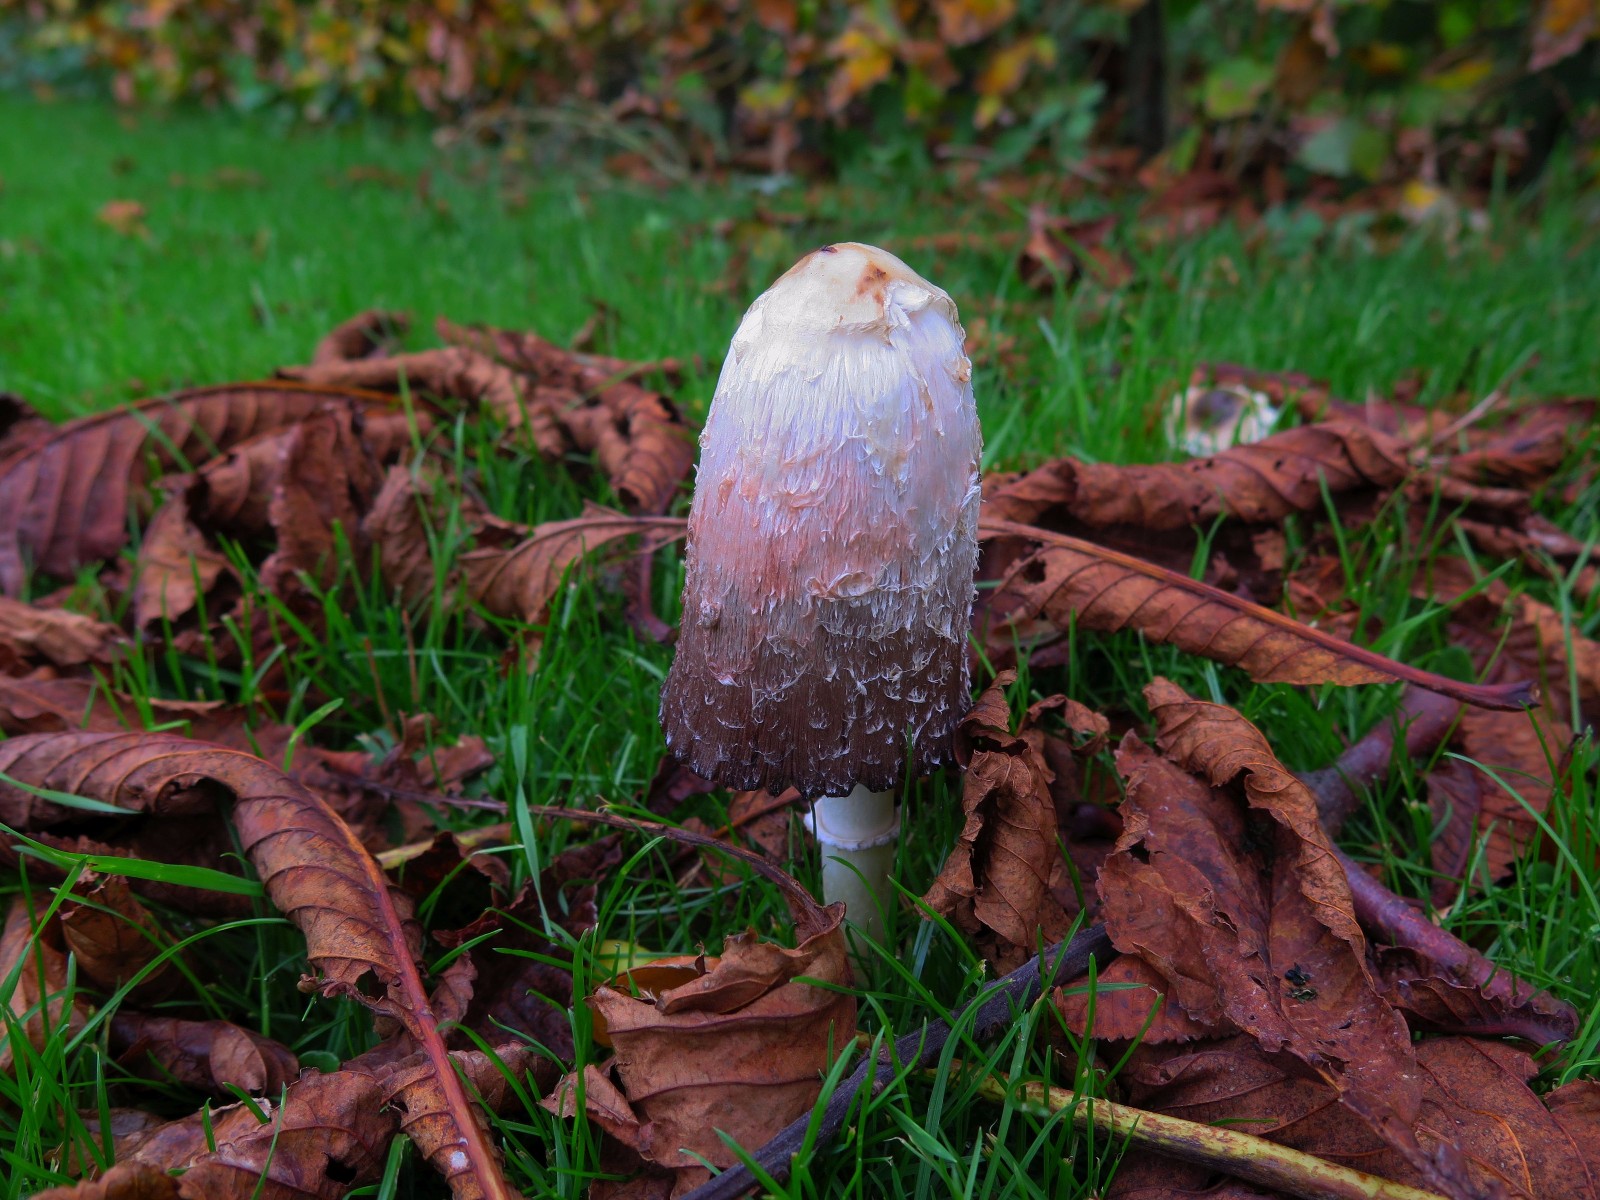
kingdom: Fungi
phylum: Basidiomycota
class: Agaricomycetes
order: Agaricales
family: Agaricaceae
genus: Coprinus
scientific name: Coprinus comatus
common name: stor parykhat
